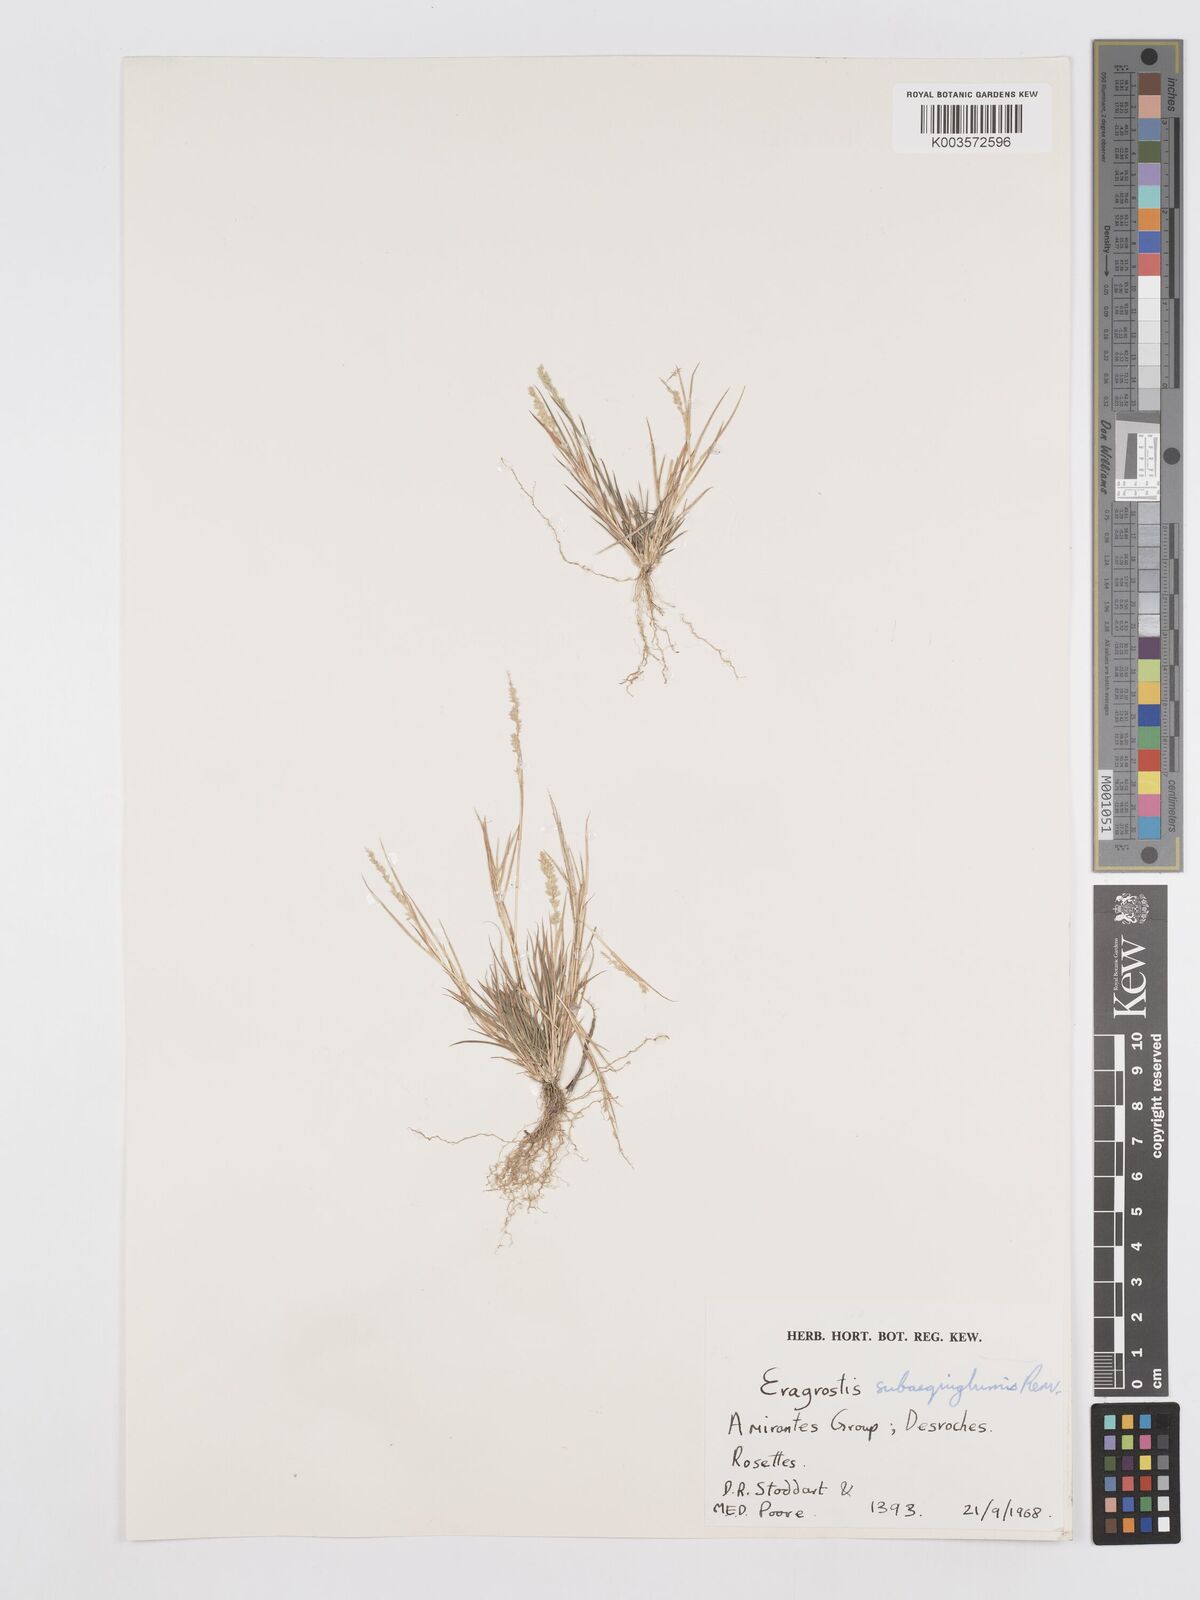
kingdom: Plantae
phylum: Tracheophyta
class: Liliopsida
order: Poales
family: Poaceae
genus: Eragrostis
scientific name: Eragrostis subaequiglumis
